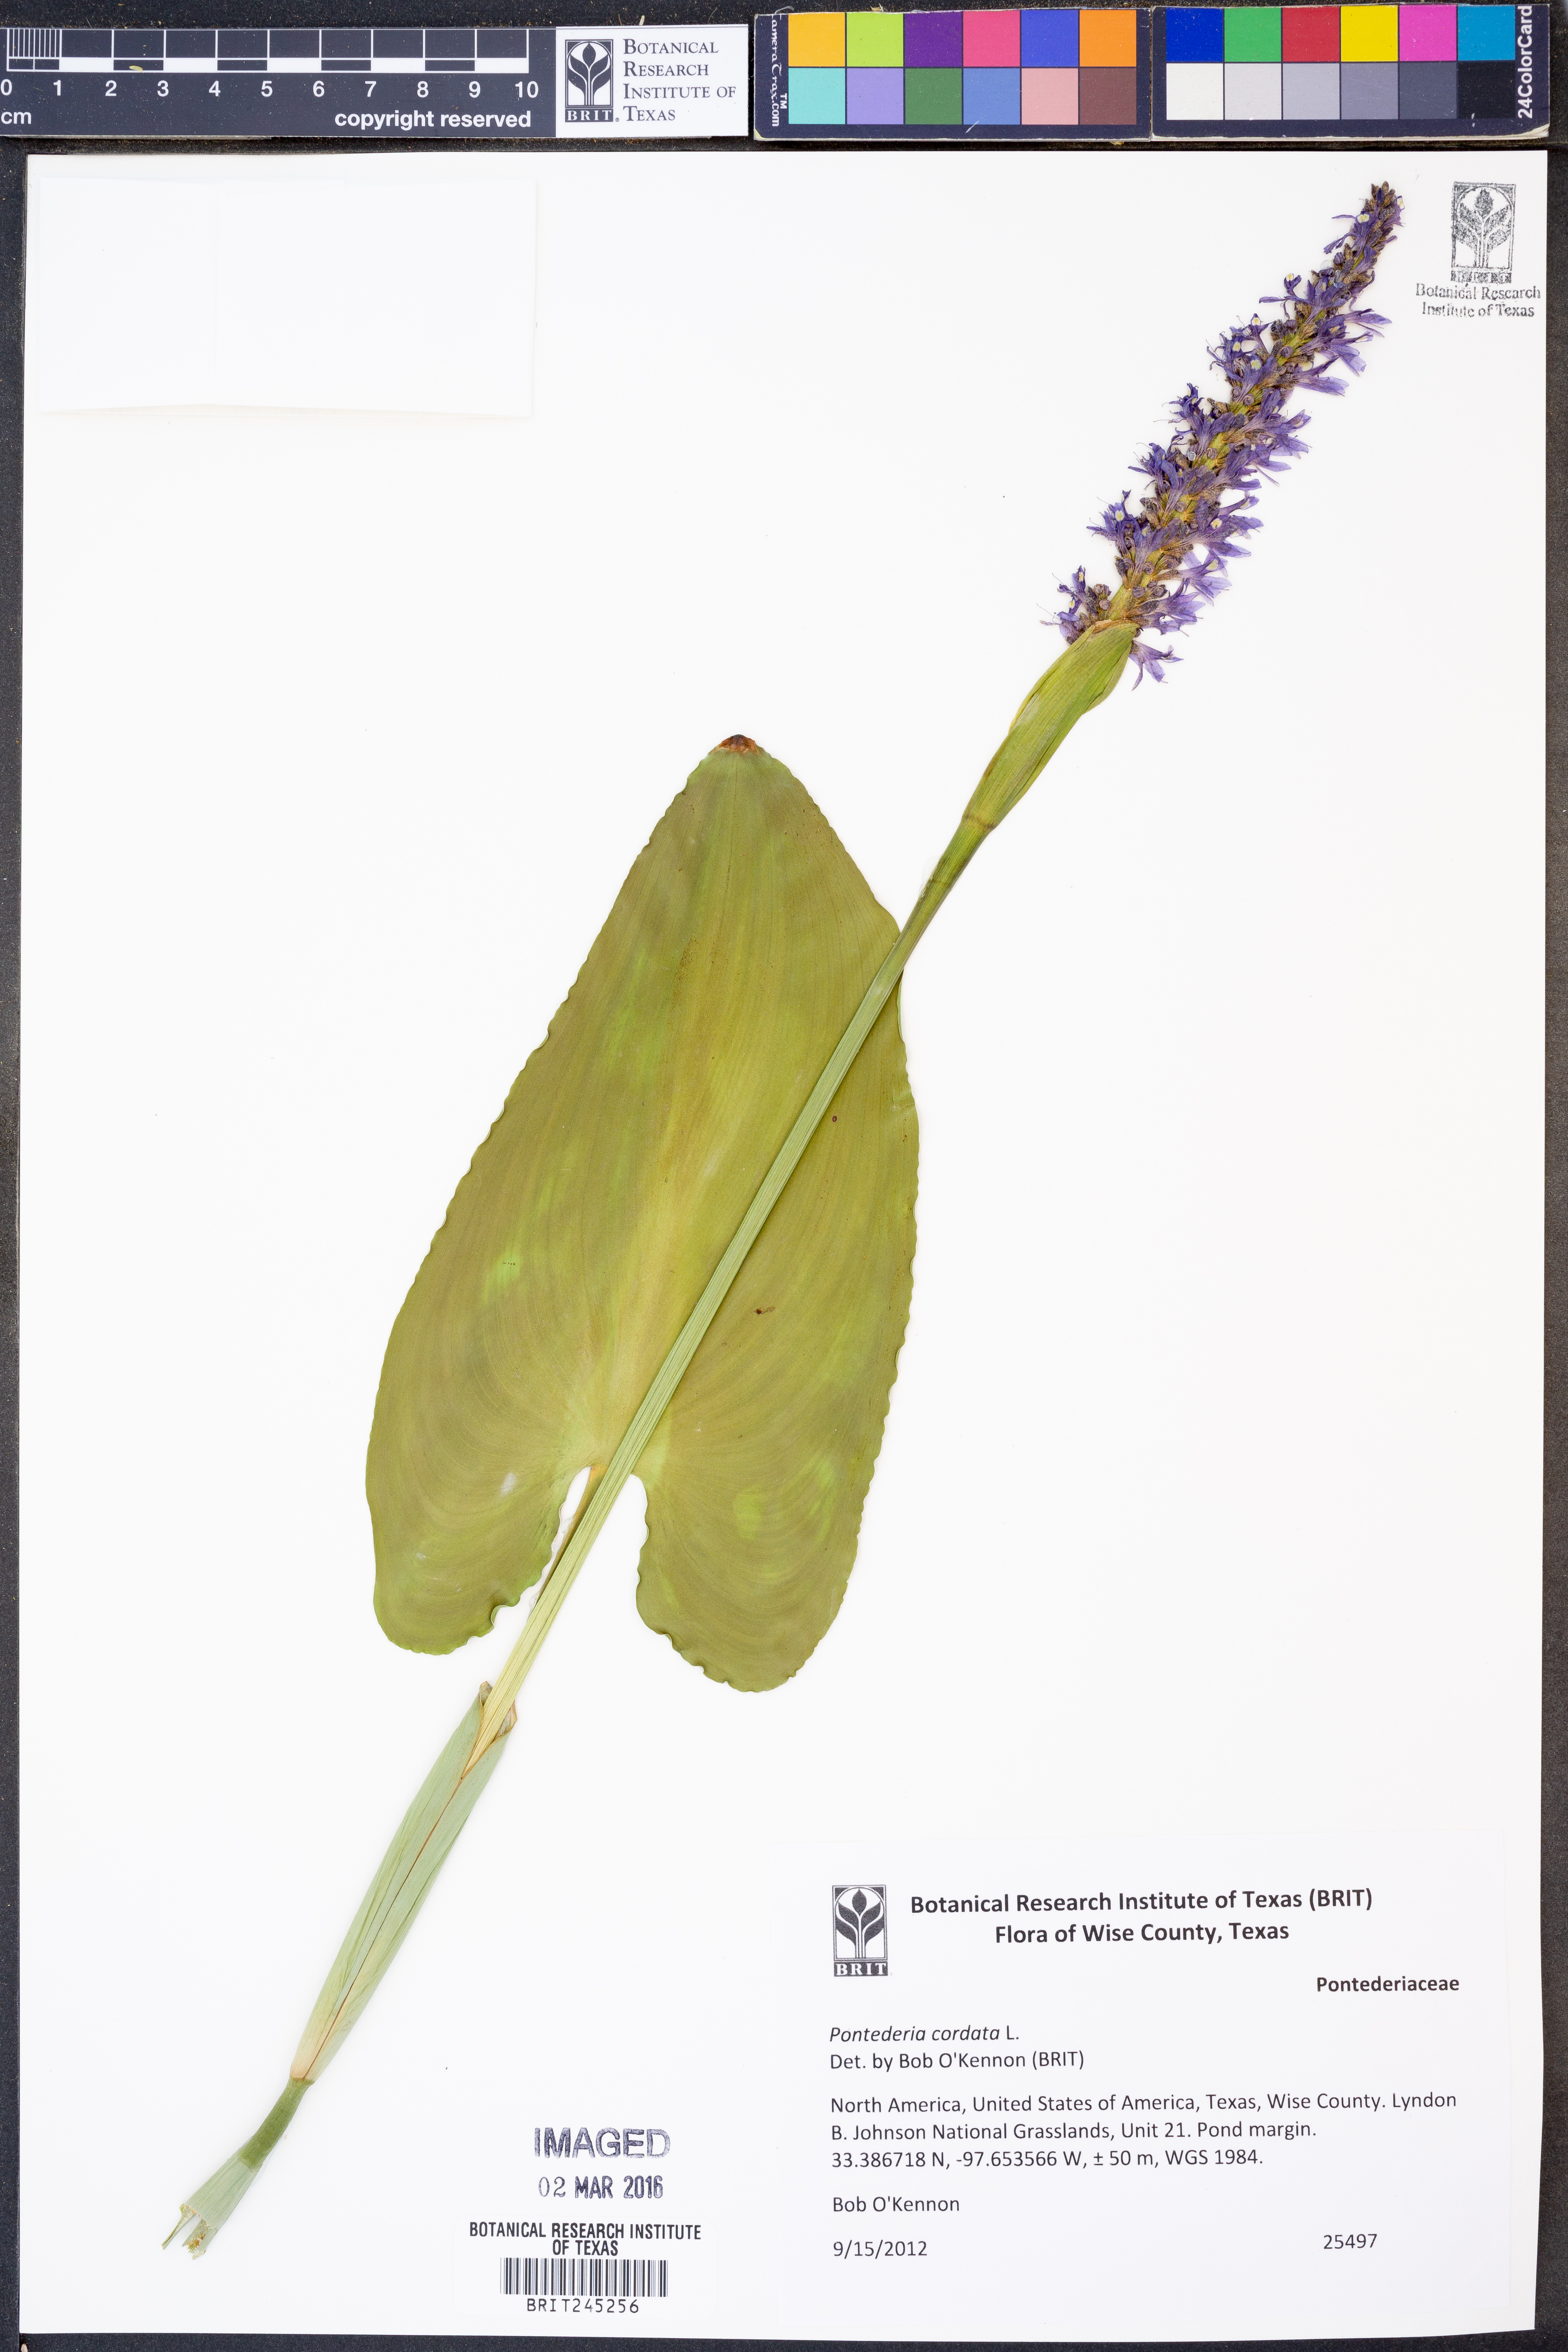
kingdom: Plantae
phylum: Tracheophyta
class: Liliopsida
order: Commelinales
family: Pontederiaceae
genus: Pontederia
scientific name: Pontederia cordata
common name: Pickerelweed
